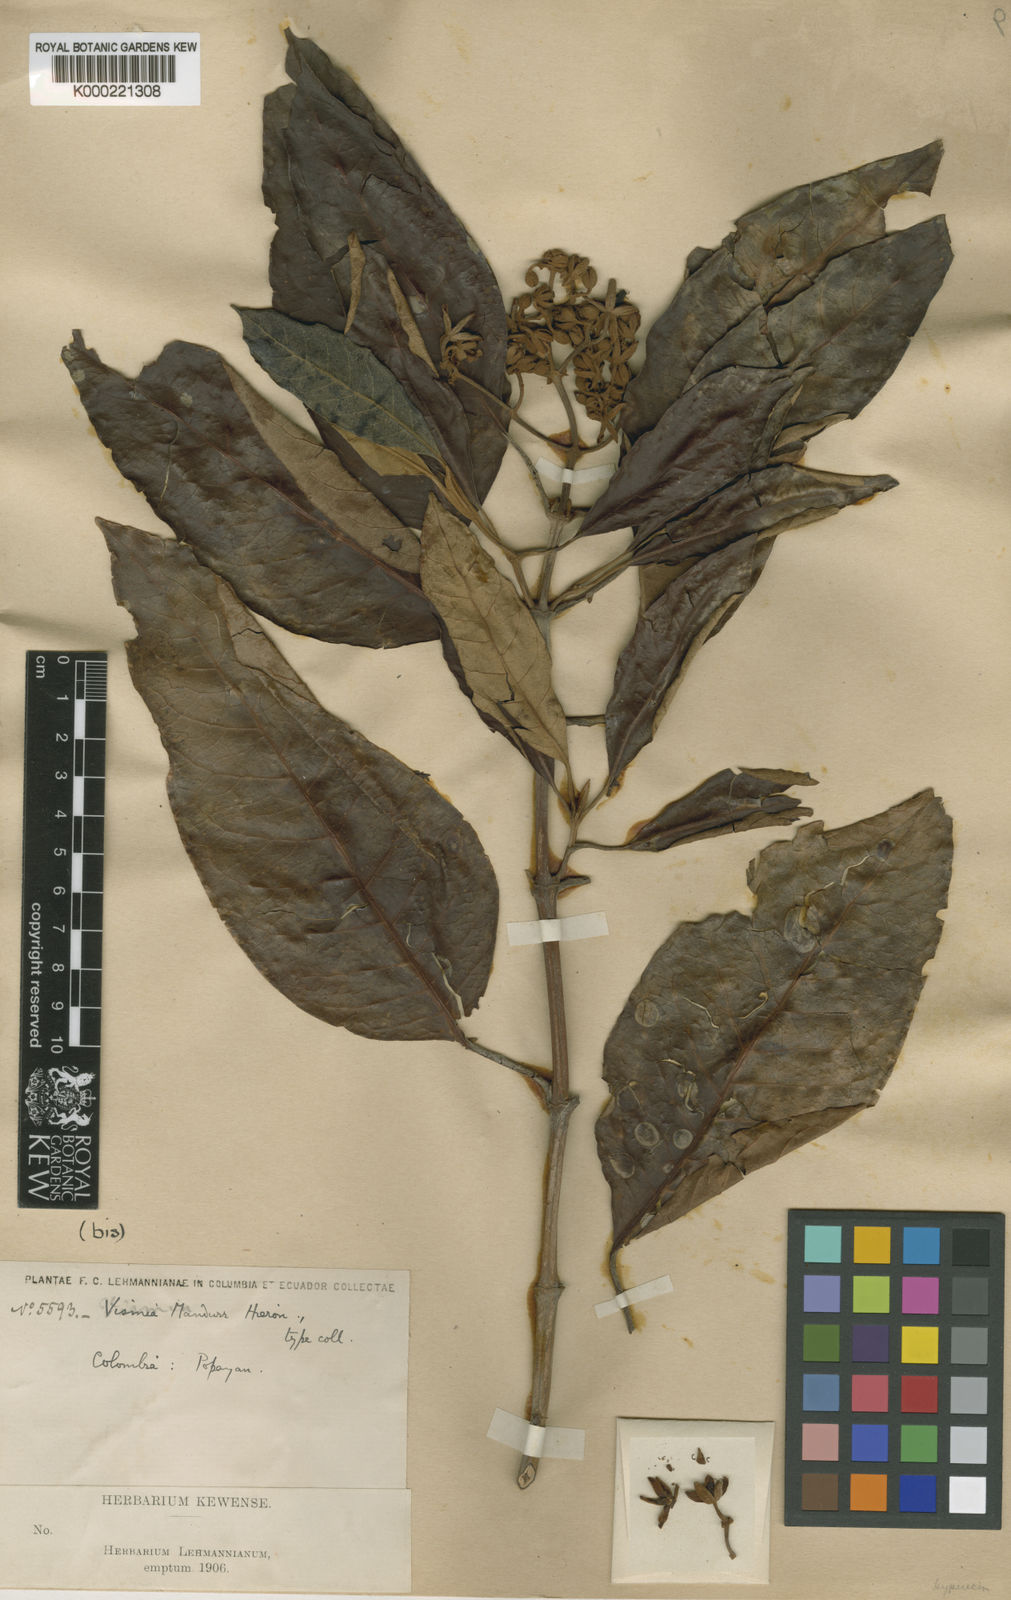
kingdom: Plantae
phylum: Tracheophyta
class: Magnoliopsida
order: Malpighiales
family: Hypericaceae
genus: Vismia
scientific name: Vismia mandurr
